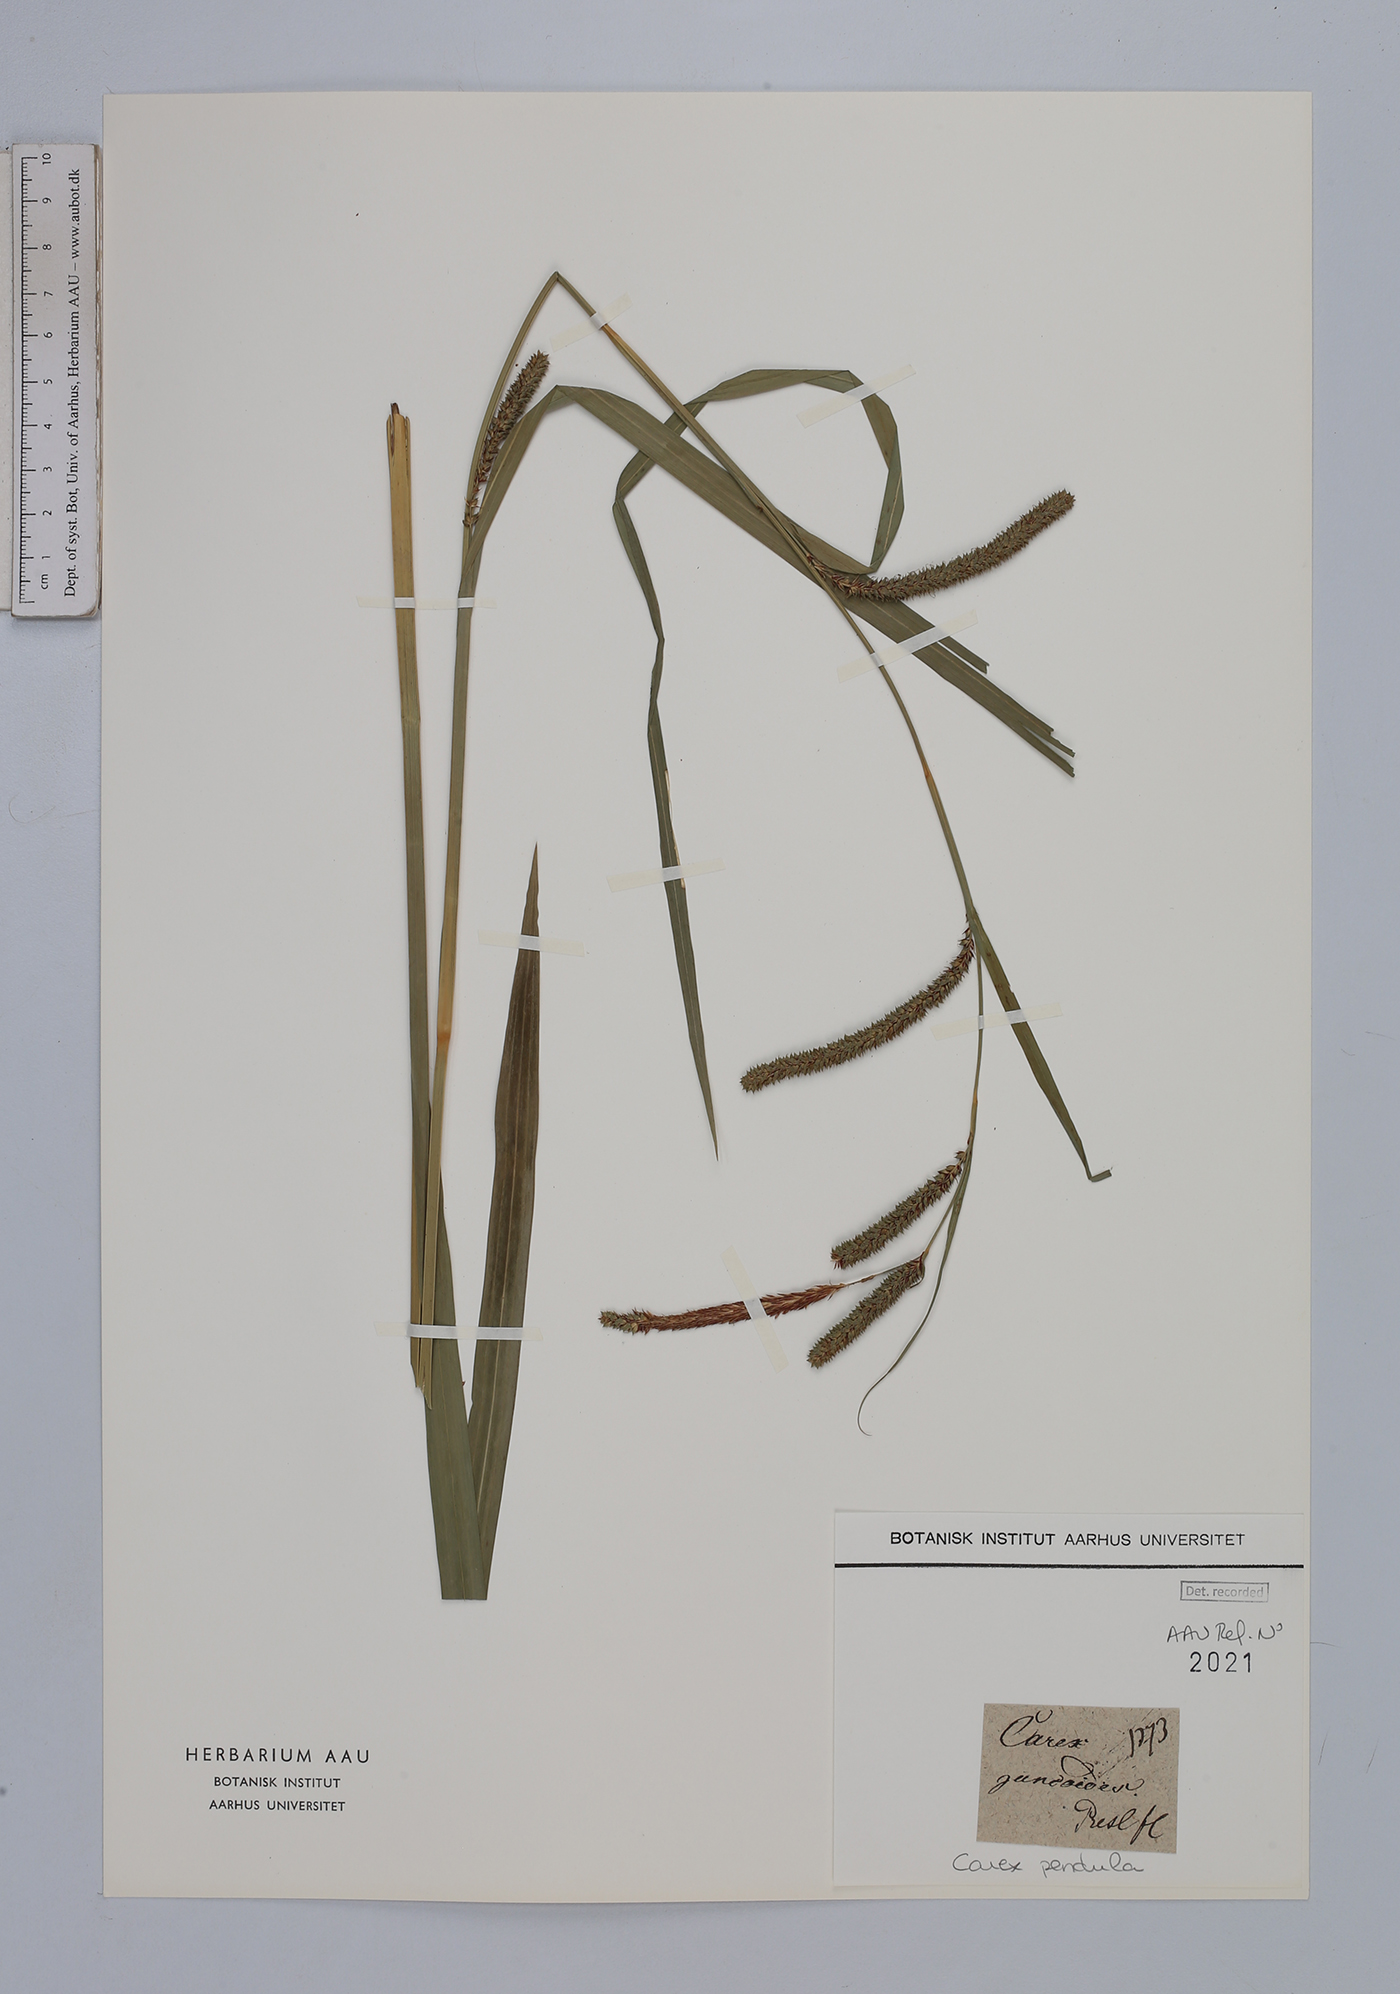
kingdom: Plantae
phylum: Tracheophyta
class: Liliopsida
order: Poales
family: Cyperaceae
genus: Carex
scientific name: Carex pendula
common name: Pendulous sedge
